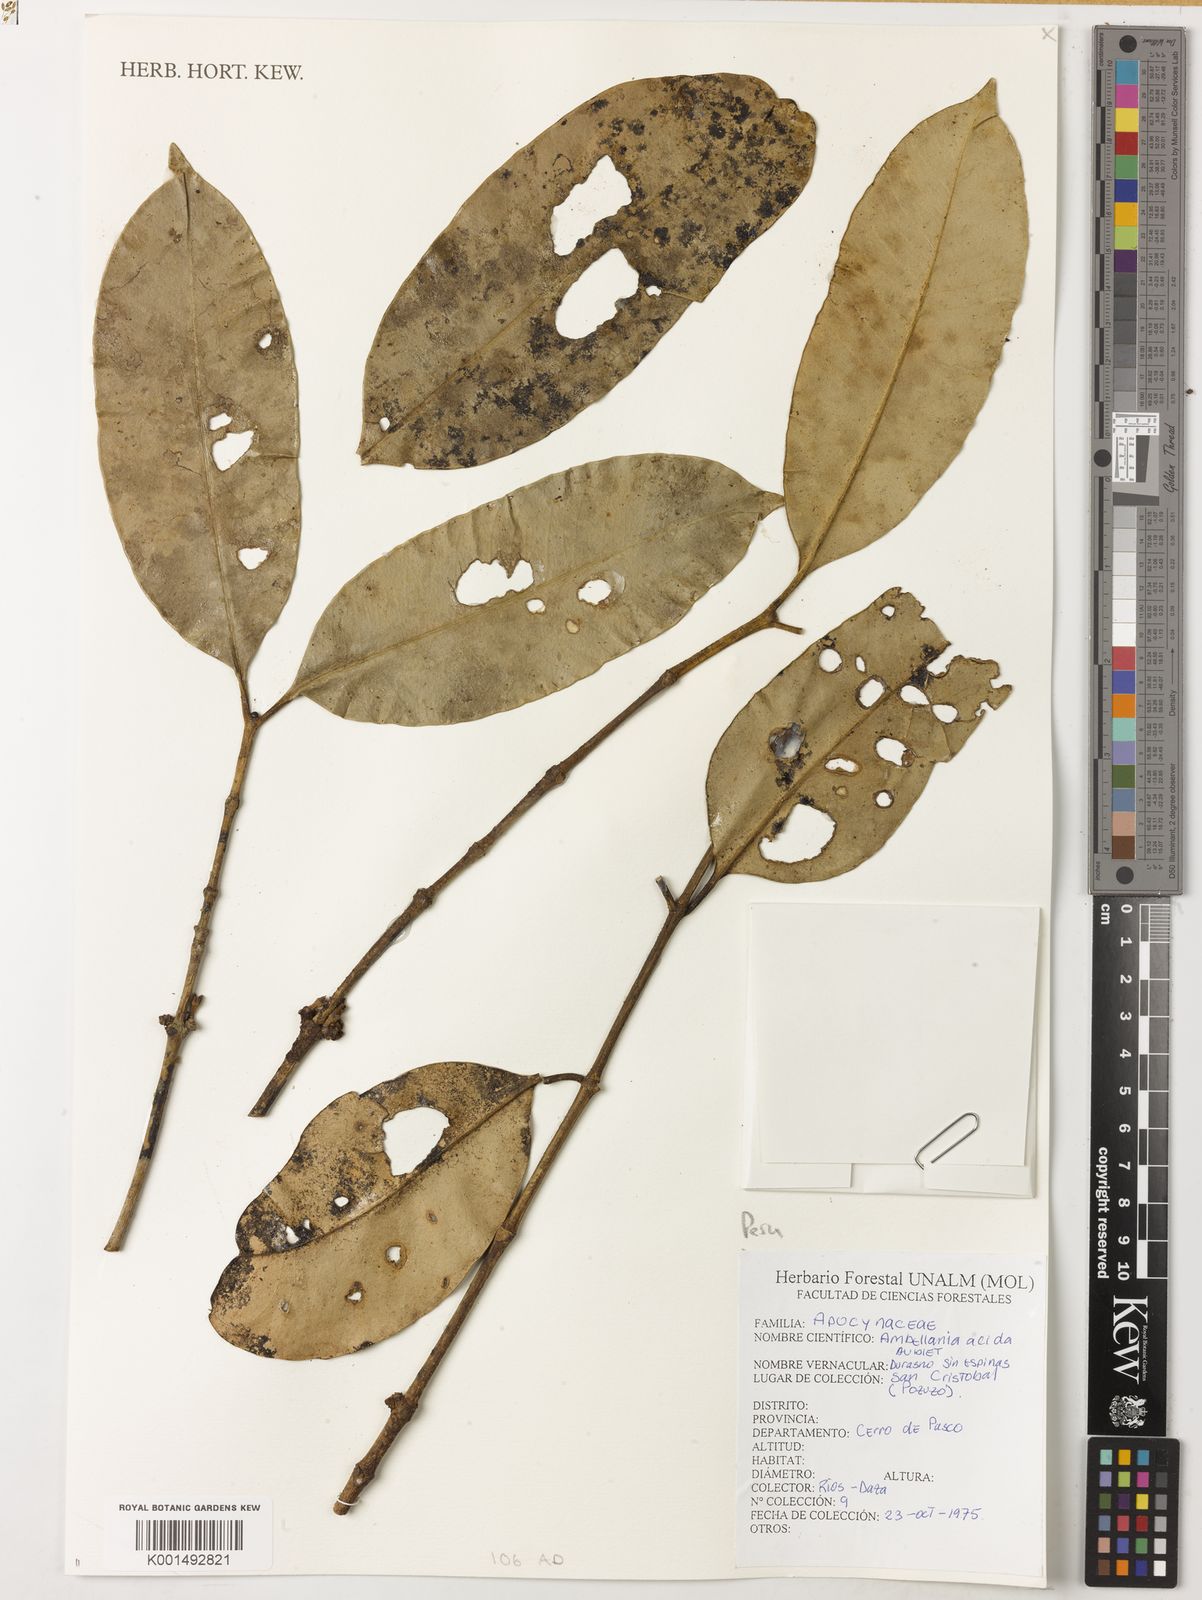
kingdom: Plantae
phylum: Tracheophyta
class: Magnoliopsida
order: Gentianales
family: Apocynaceae
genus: Ambelania
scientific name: Ambelania acida
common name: Bagasse
